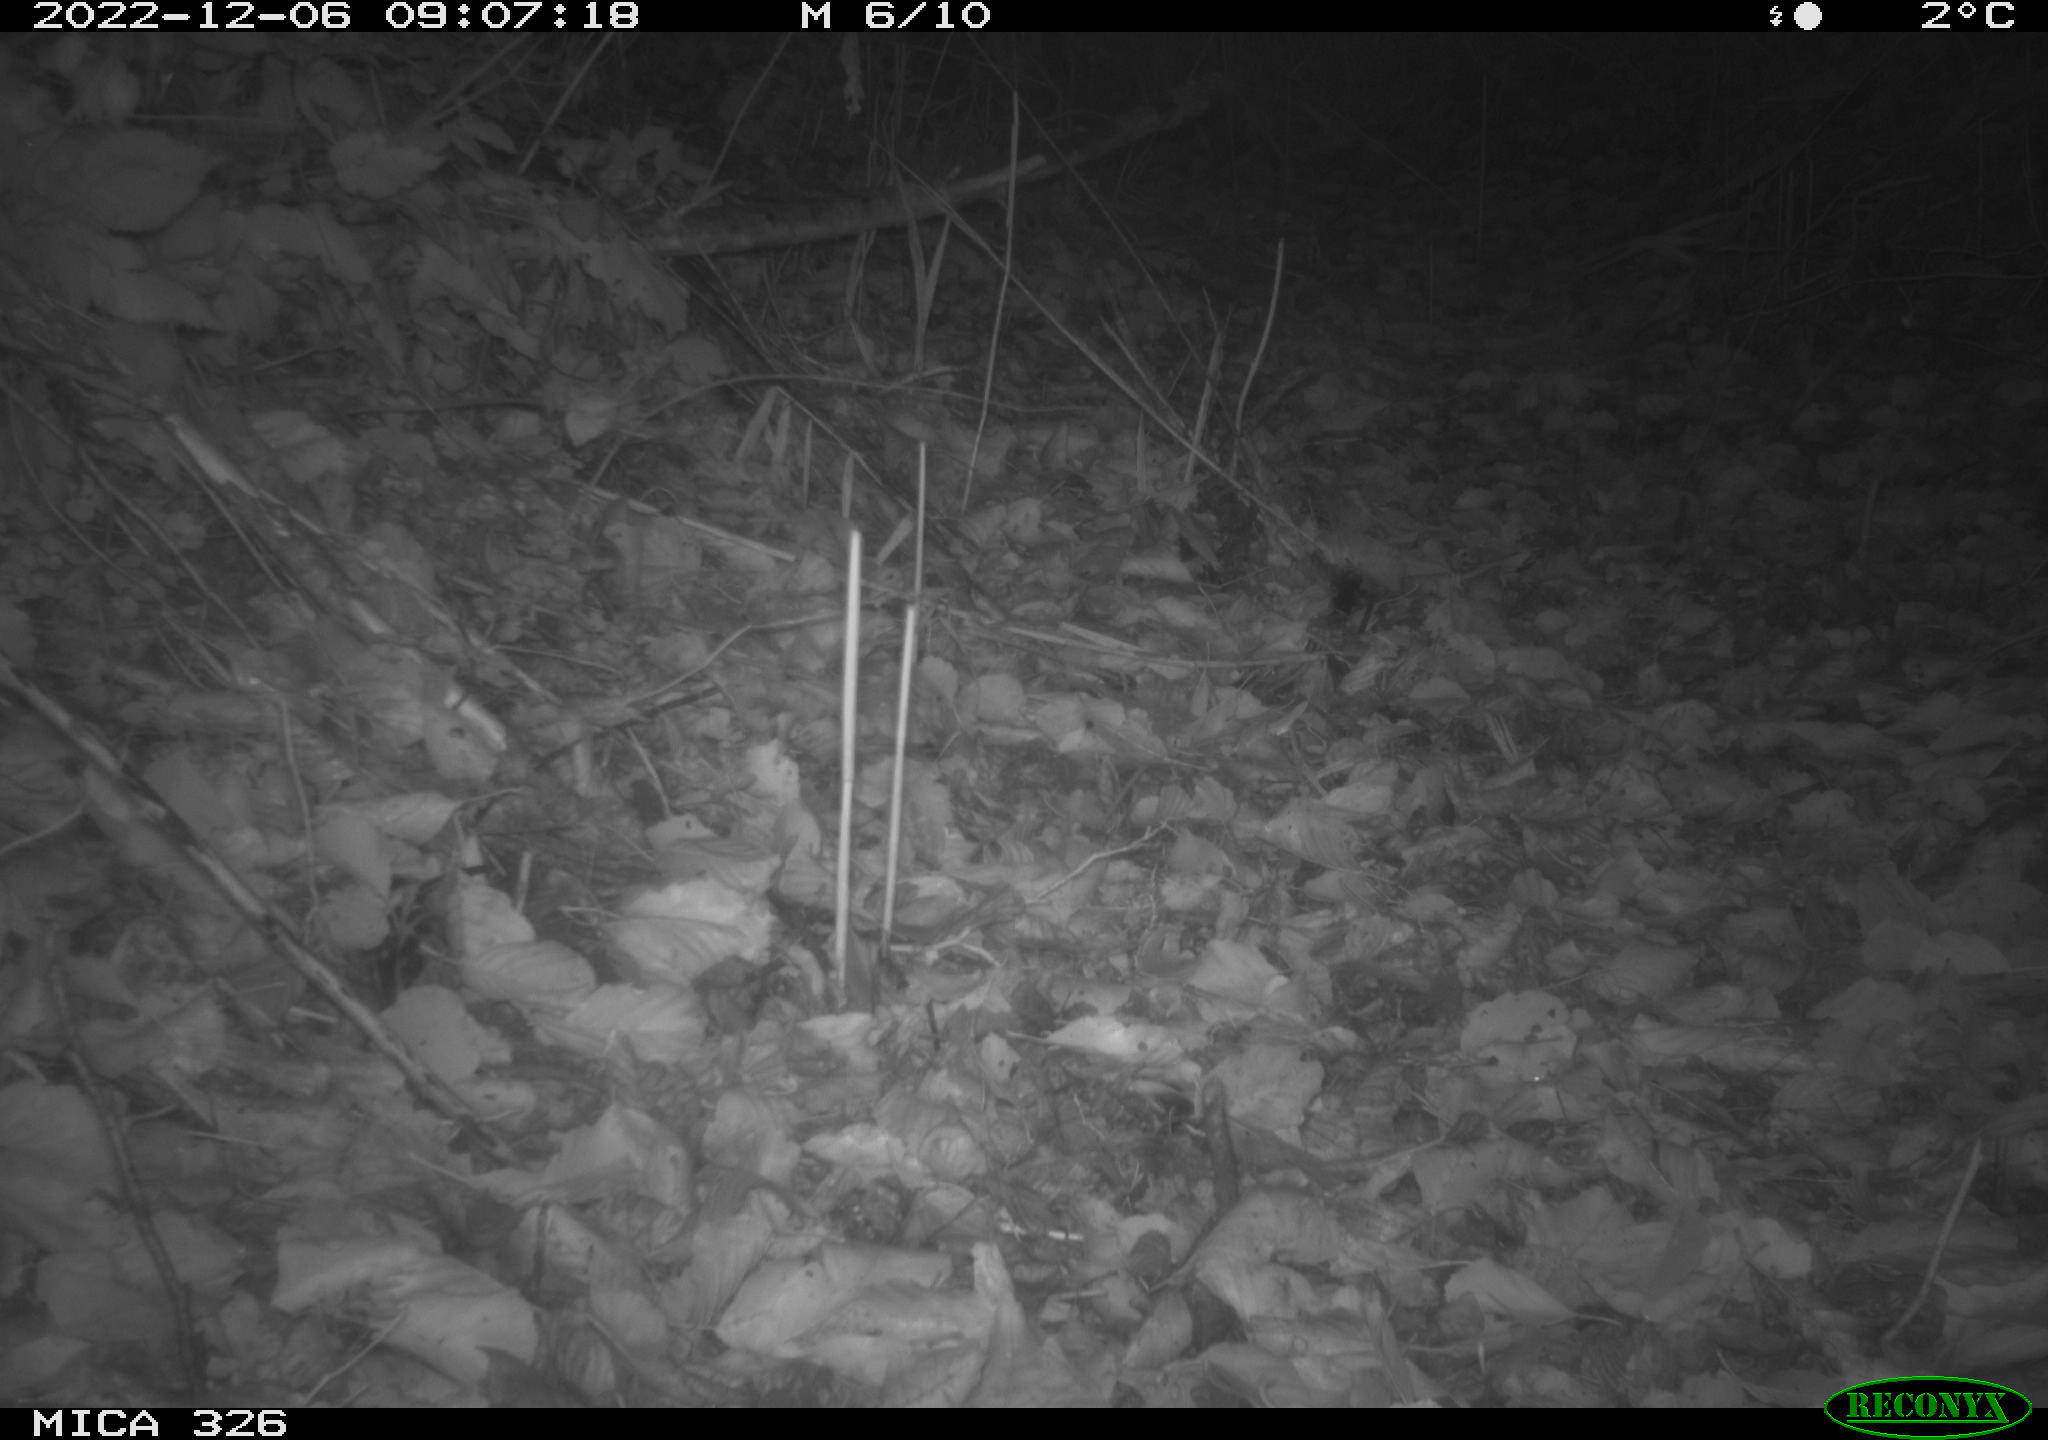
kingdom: Animalia
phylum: Chordata
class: Aves
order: Galliformes
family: Phasianidae
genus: Phasianus
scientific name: Phasianus colchicus
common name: Common pheasant
